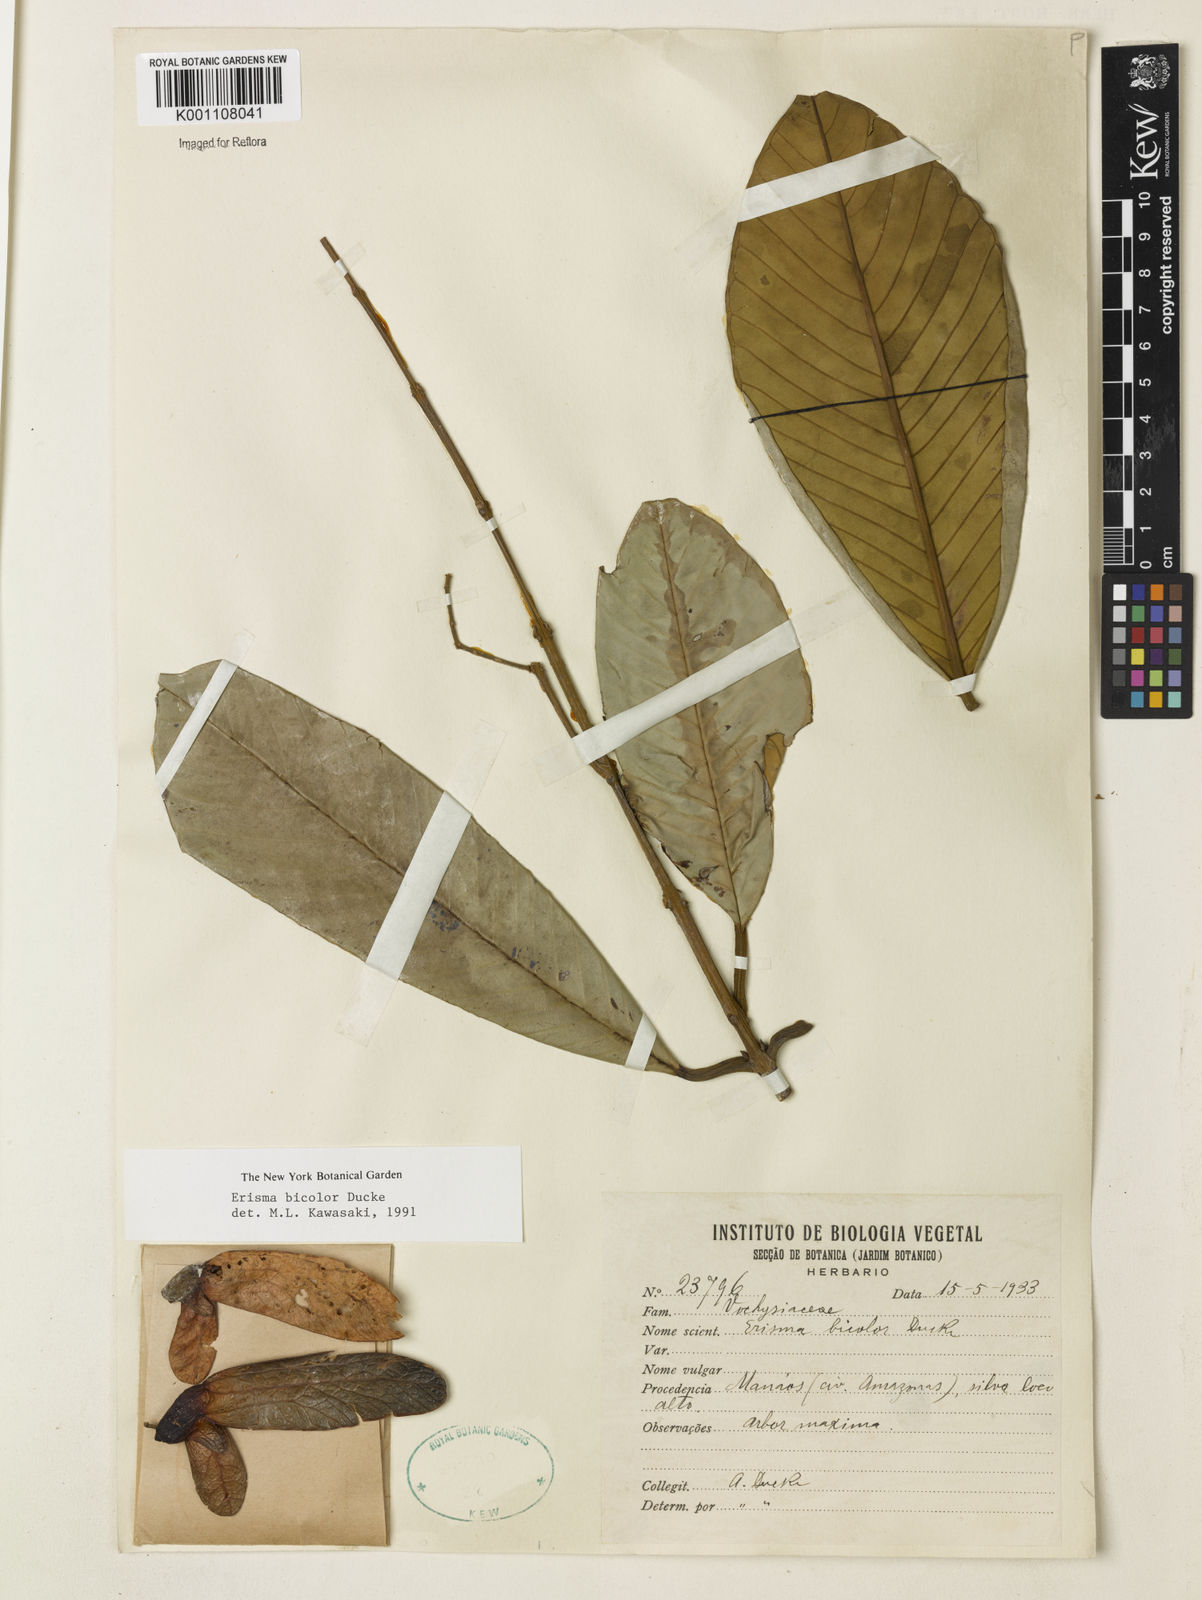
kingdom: Plantae
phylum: Tracheophyta
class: Magnoliopsida
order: Myrtales
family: Vochysiaceae
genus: Erisma
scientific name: Erisma bicolor
